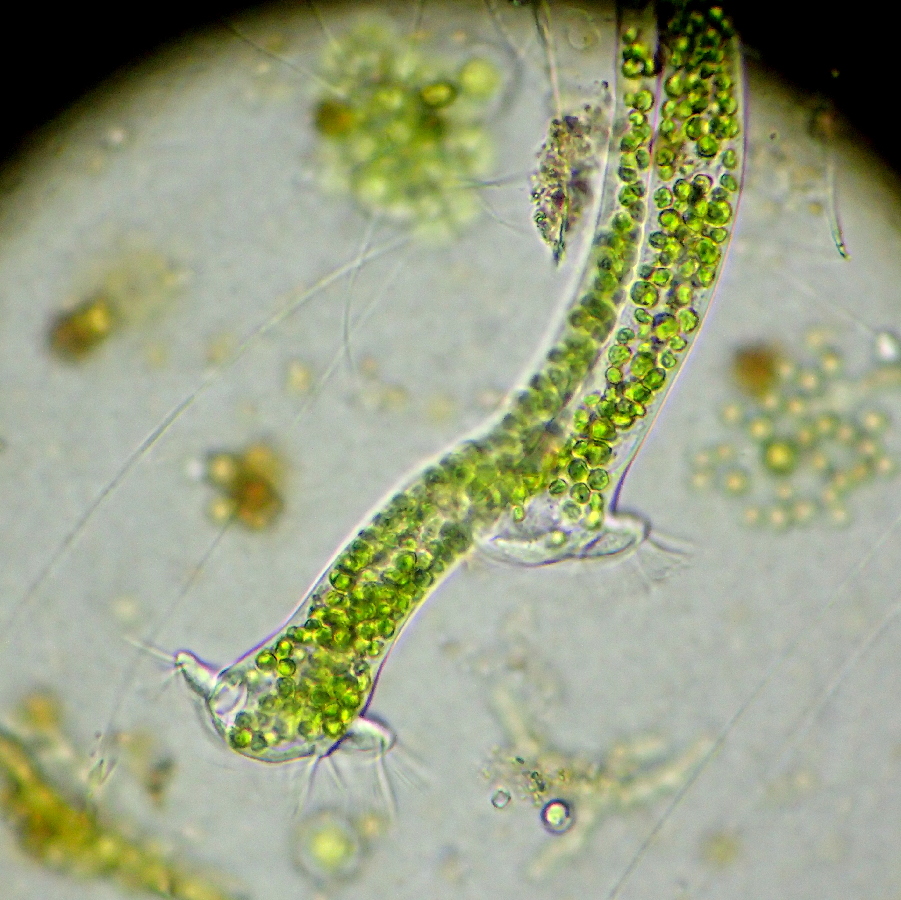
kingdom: Chromista
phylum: Ciliophora
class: Oligohymenophorea
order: Peritrichida
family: Vaginicolidae
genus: Thuricola
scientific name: Thuricola folliculata
